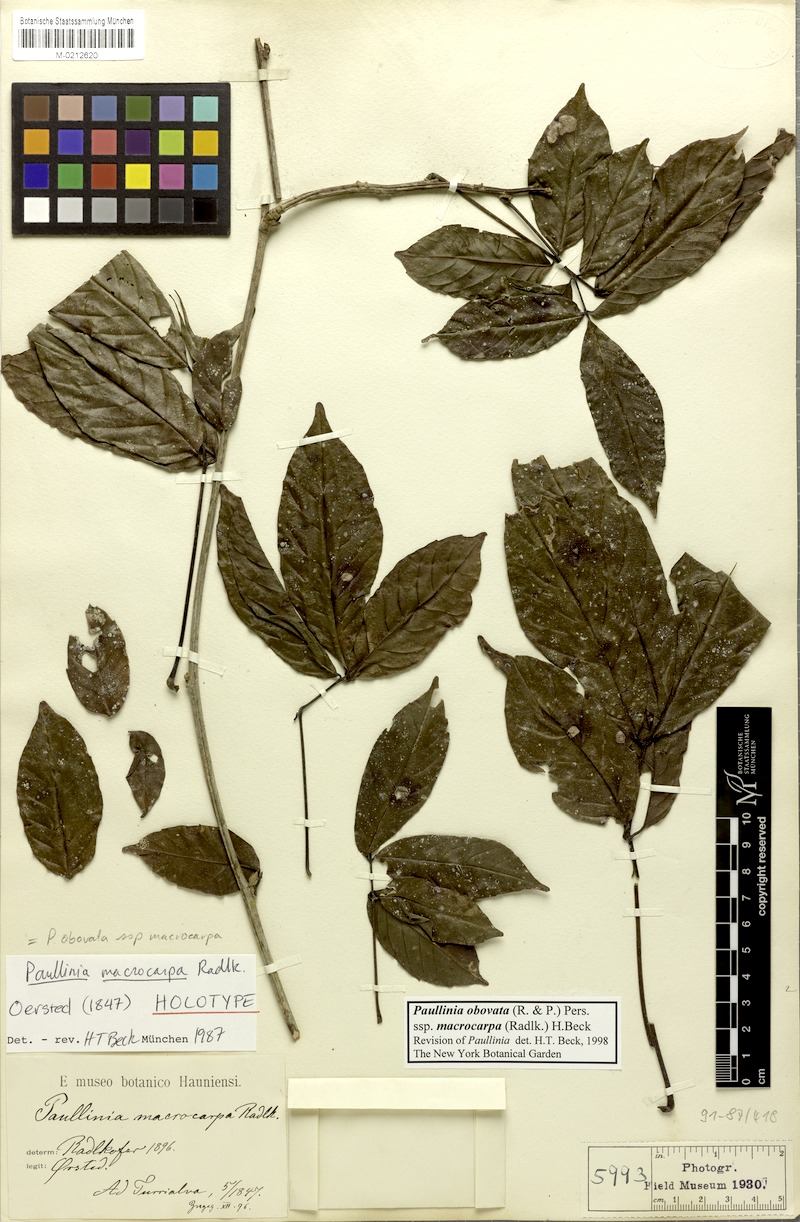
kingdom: Plantae
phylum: Tracheophyta
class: Magnoliopsida
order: Sapindales
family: Sapindaceae
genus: Paullinia
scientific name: Paullinia obovata
